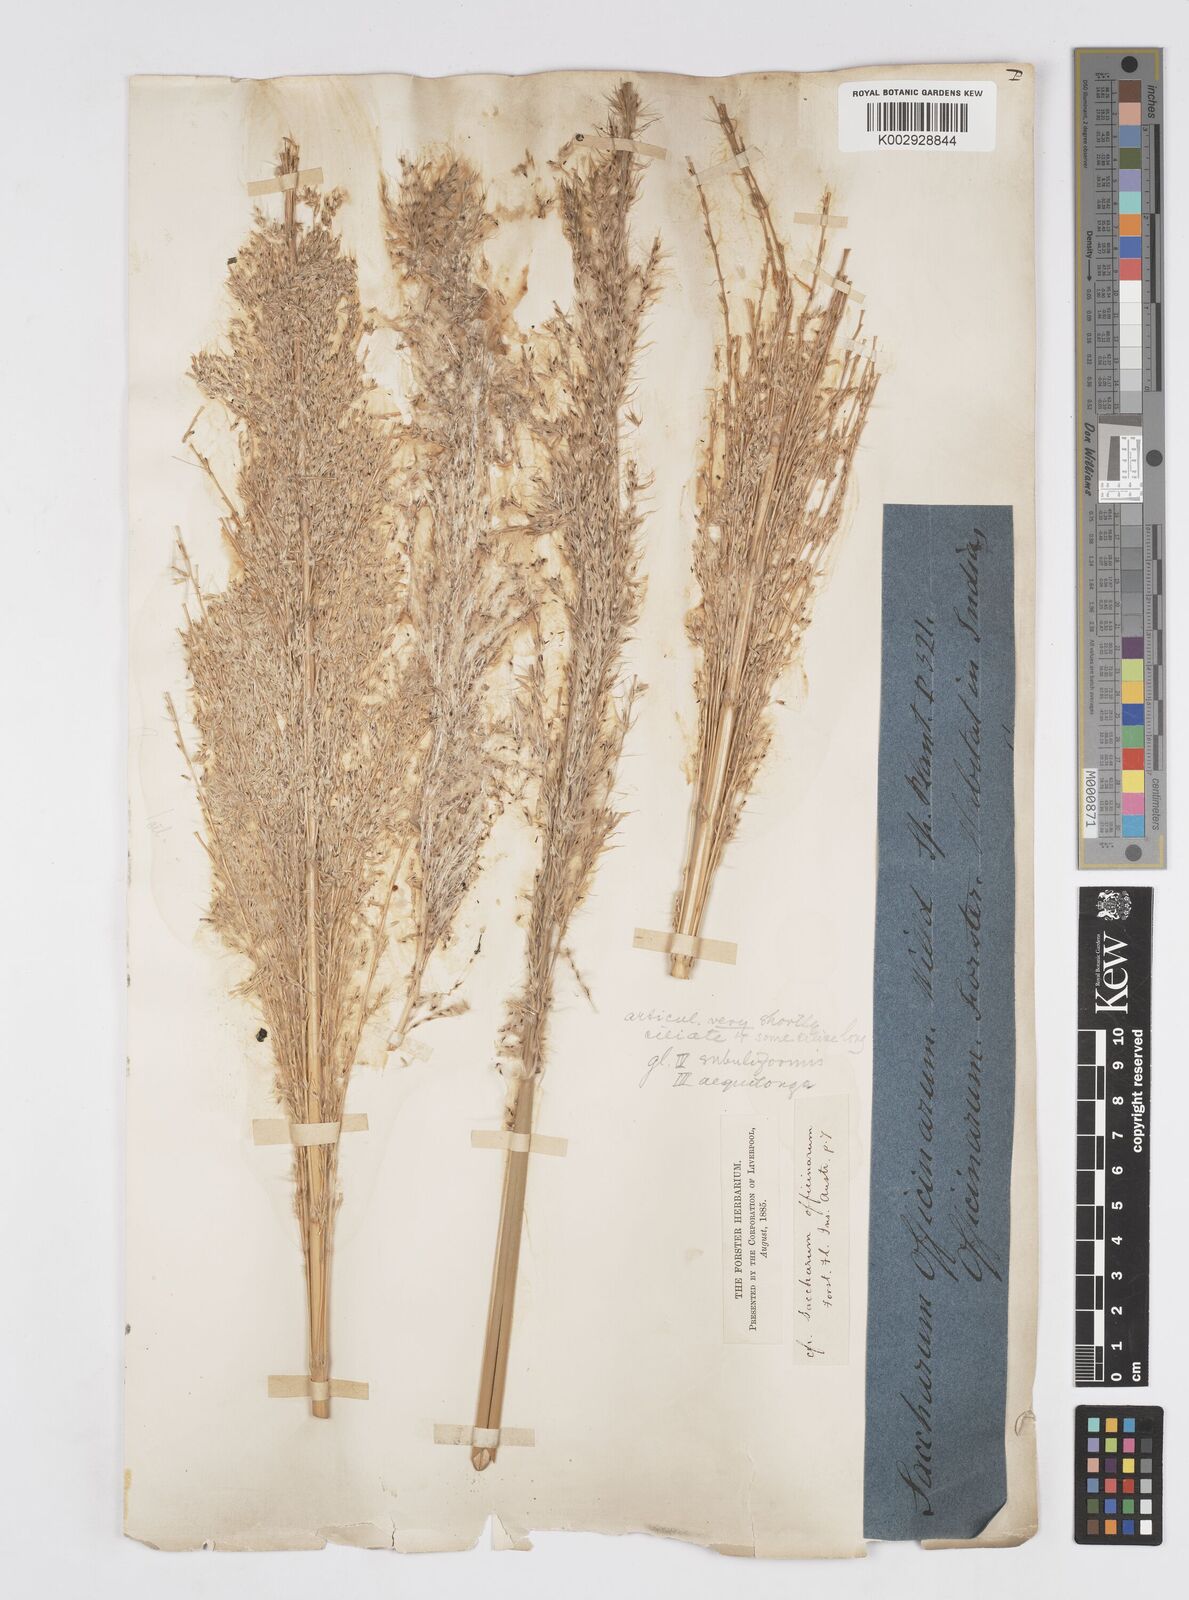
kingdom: Plantae
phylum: Tracheophyta
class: Liliopsida
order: Poales
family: Poaceae
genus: Saccharum
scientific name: Saccharum officinarum
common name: Sugarcane
